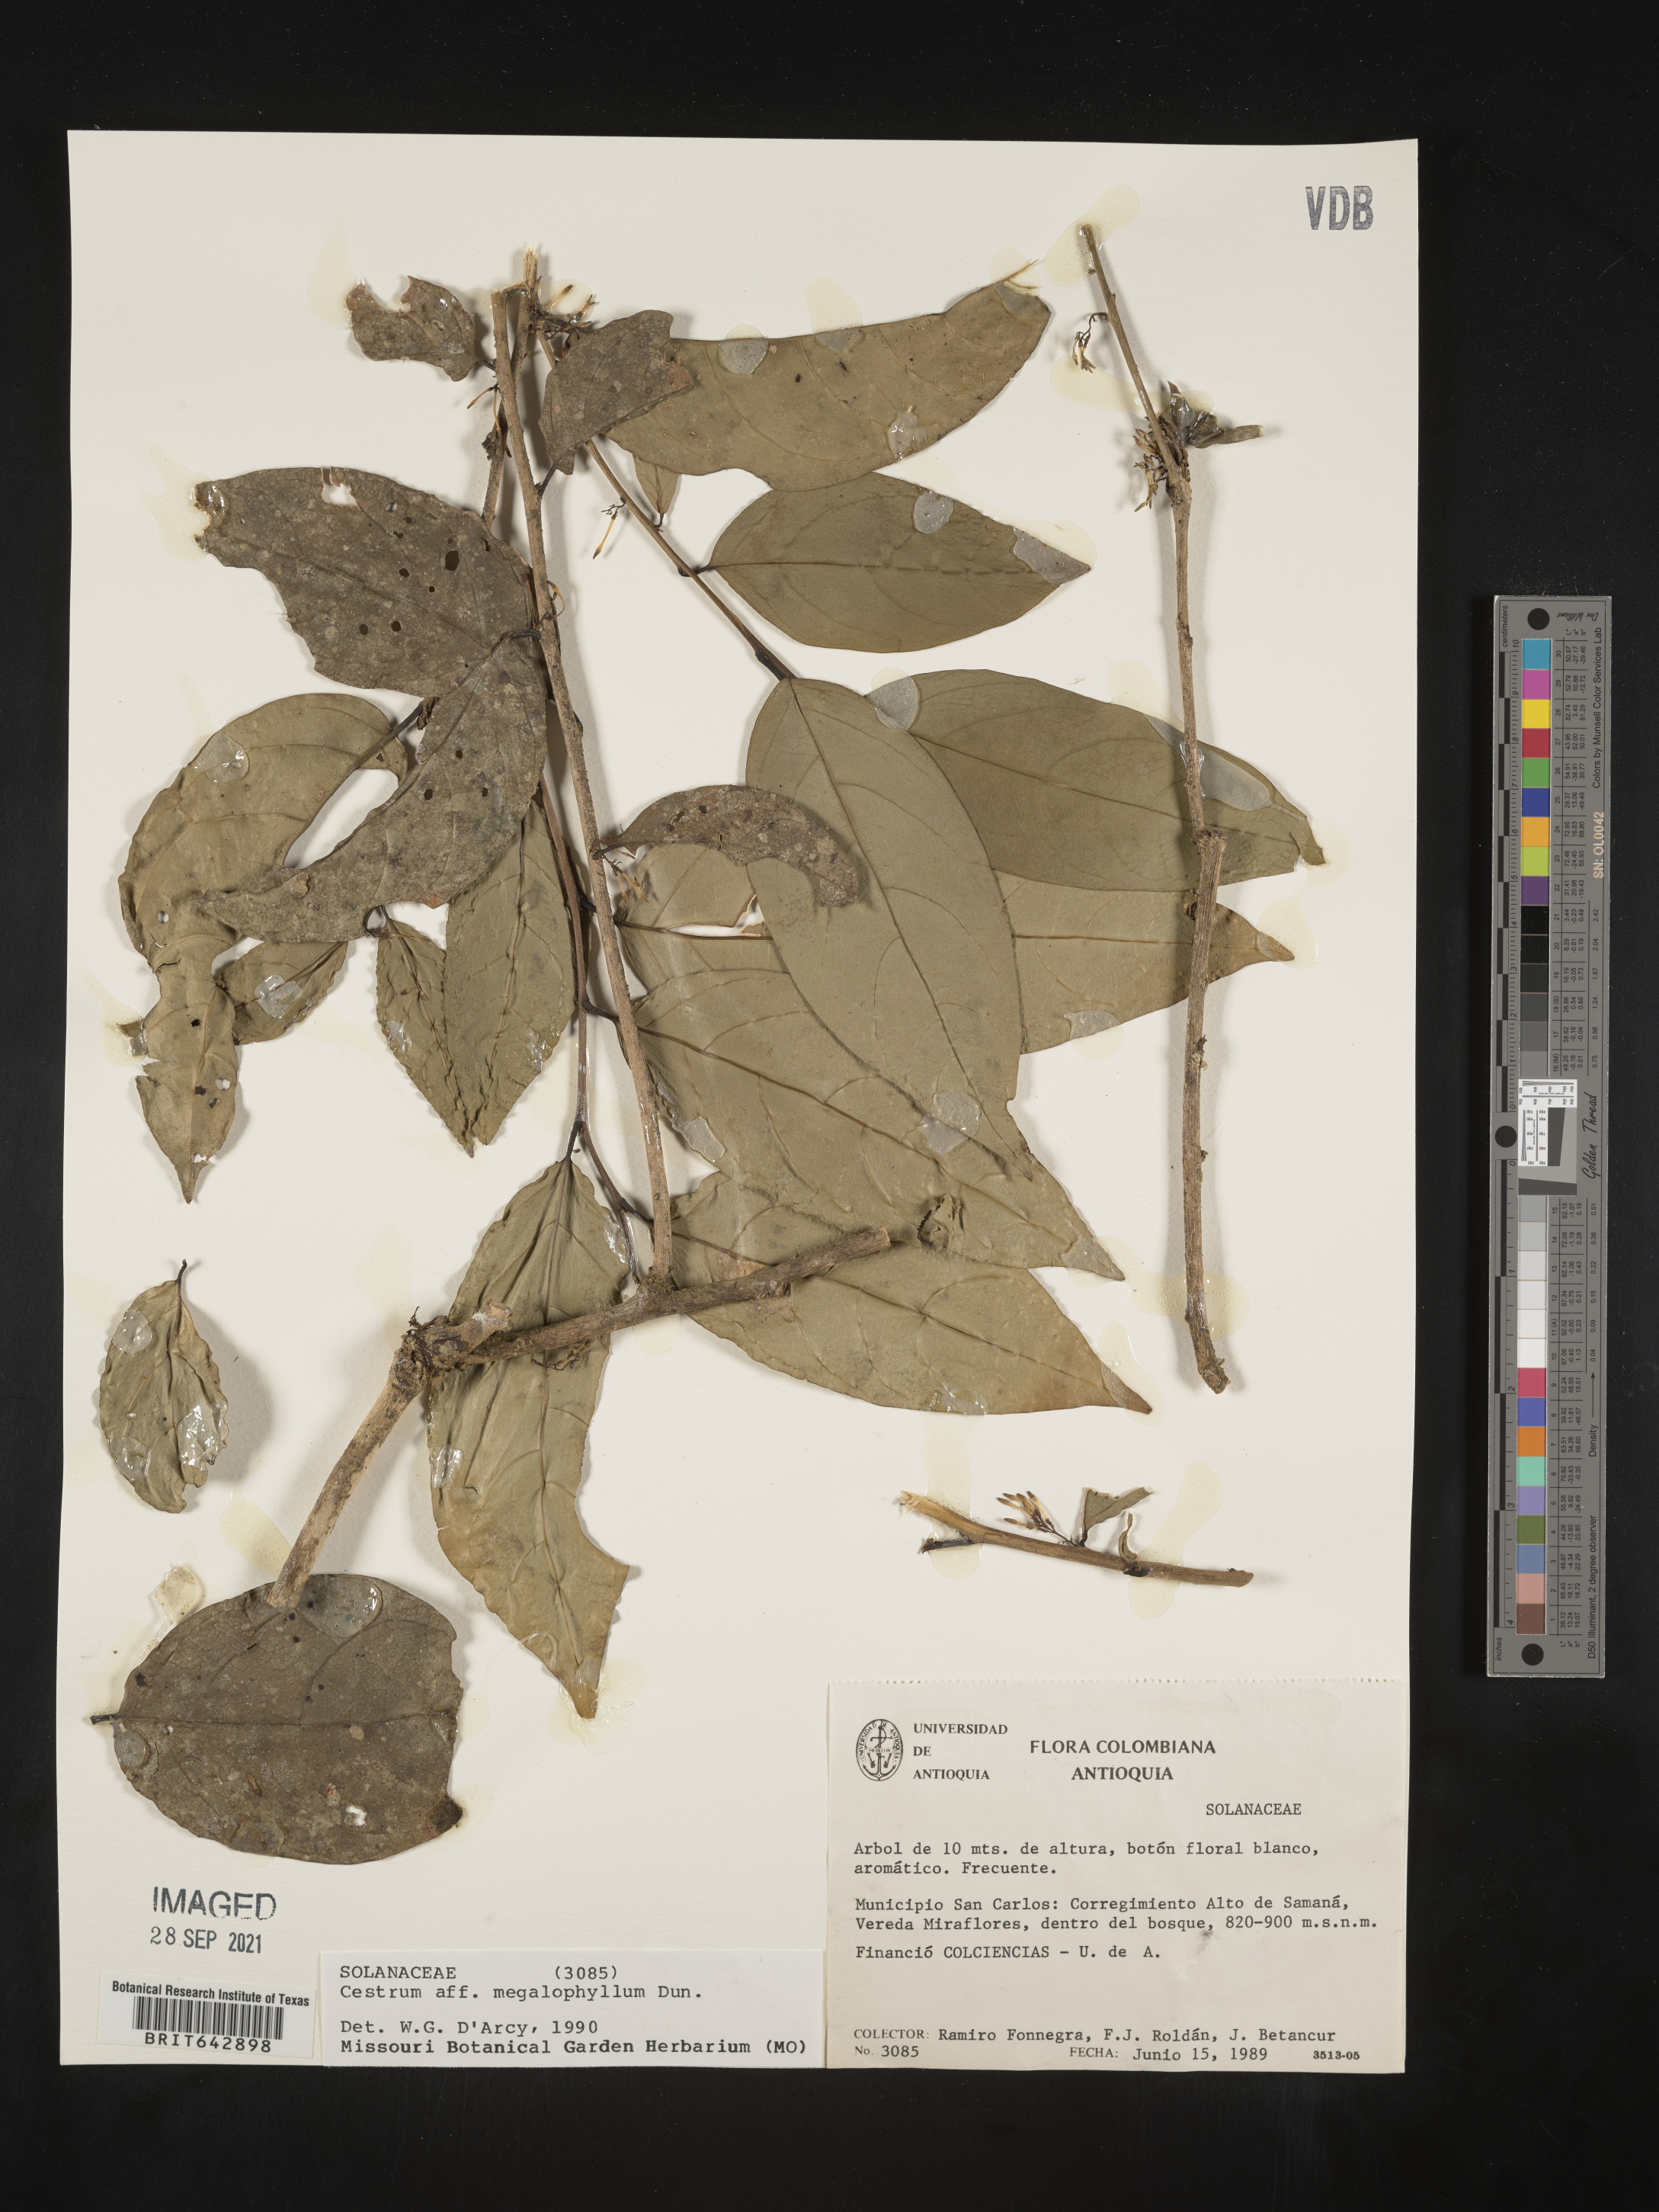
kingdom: Plantae
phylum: Tracheophyta
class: Magnoliopsida
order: Solanales
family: Solanaceae
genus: Cestrum
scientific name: Cestrum
